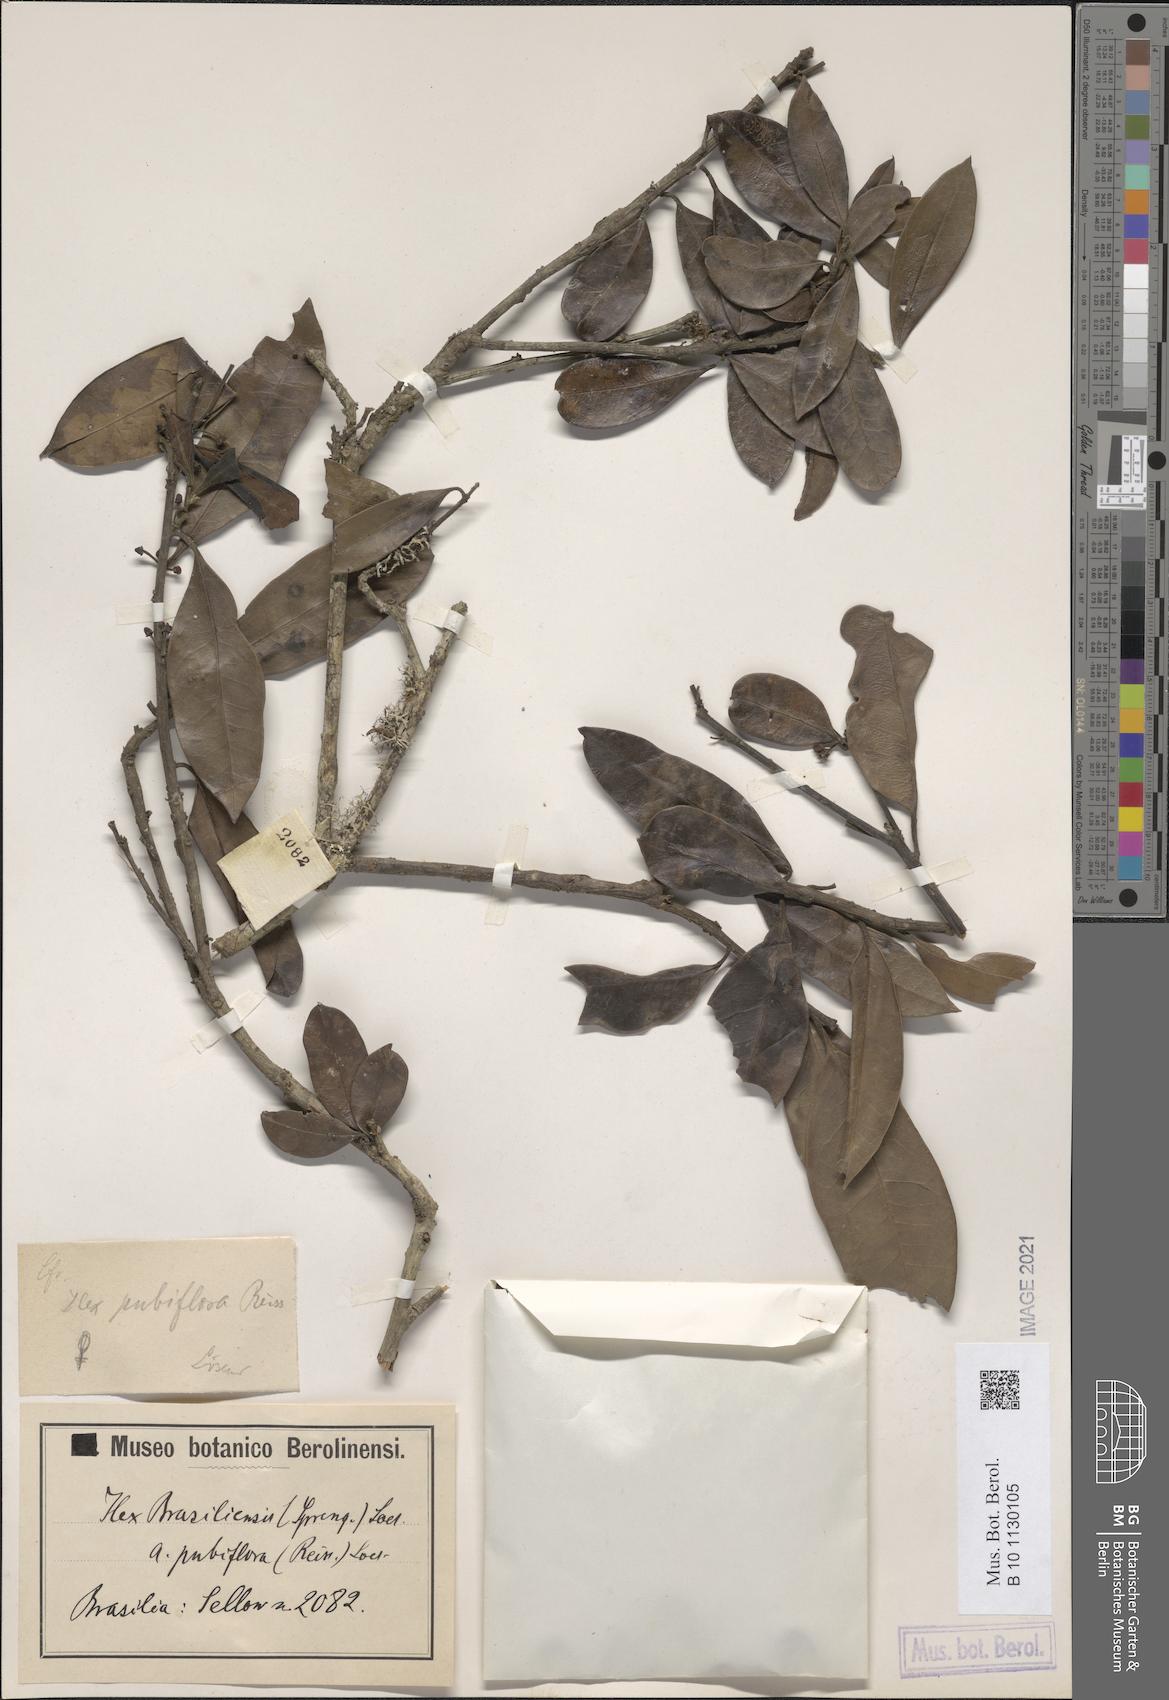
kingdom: Plantae
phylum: Tracheophyta
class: Magnoliopsida
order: Aquifoliales
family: Aquifoliaceae
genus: Ilex
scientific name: Ilex brasiliensis
